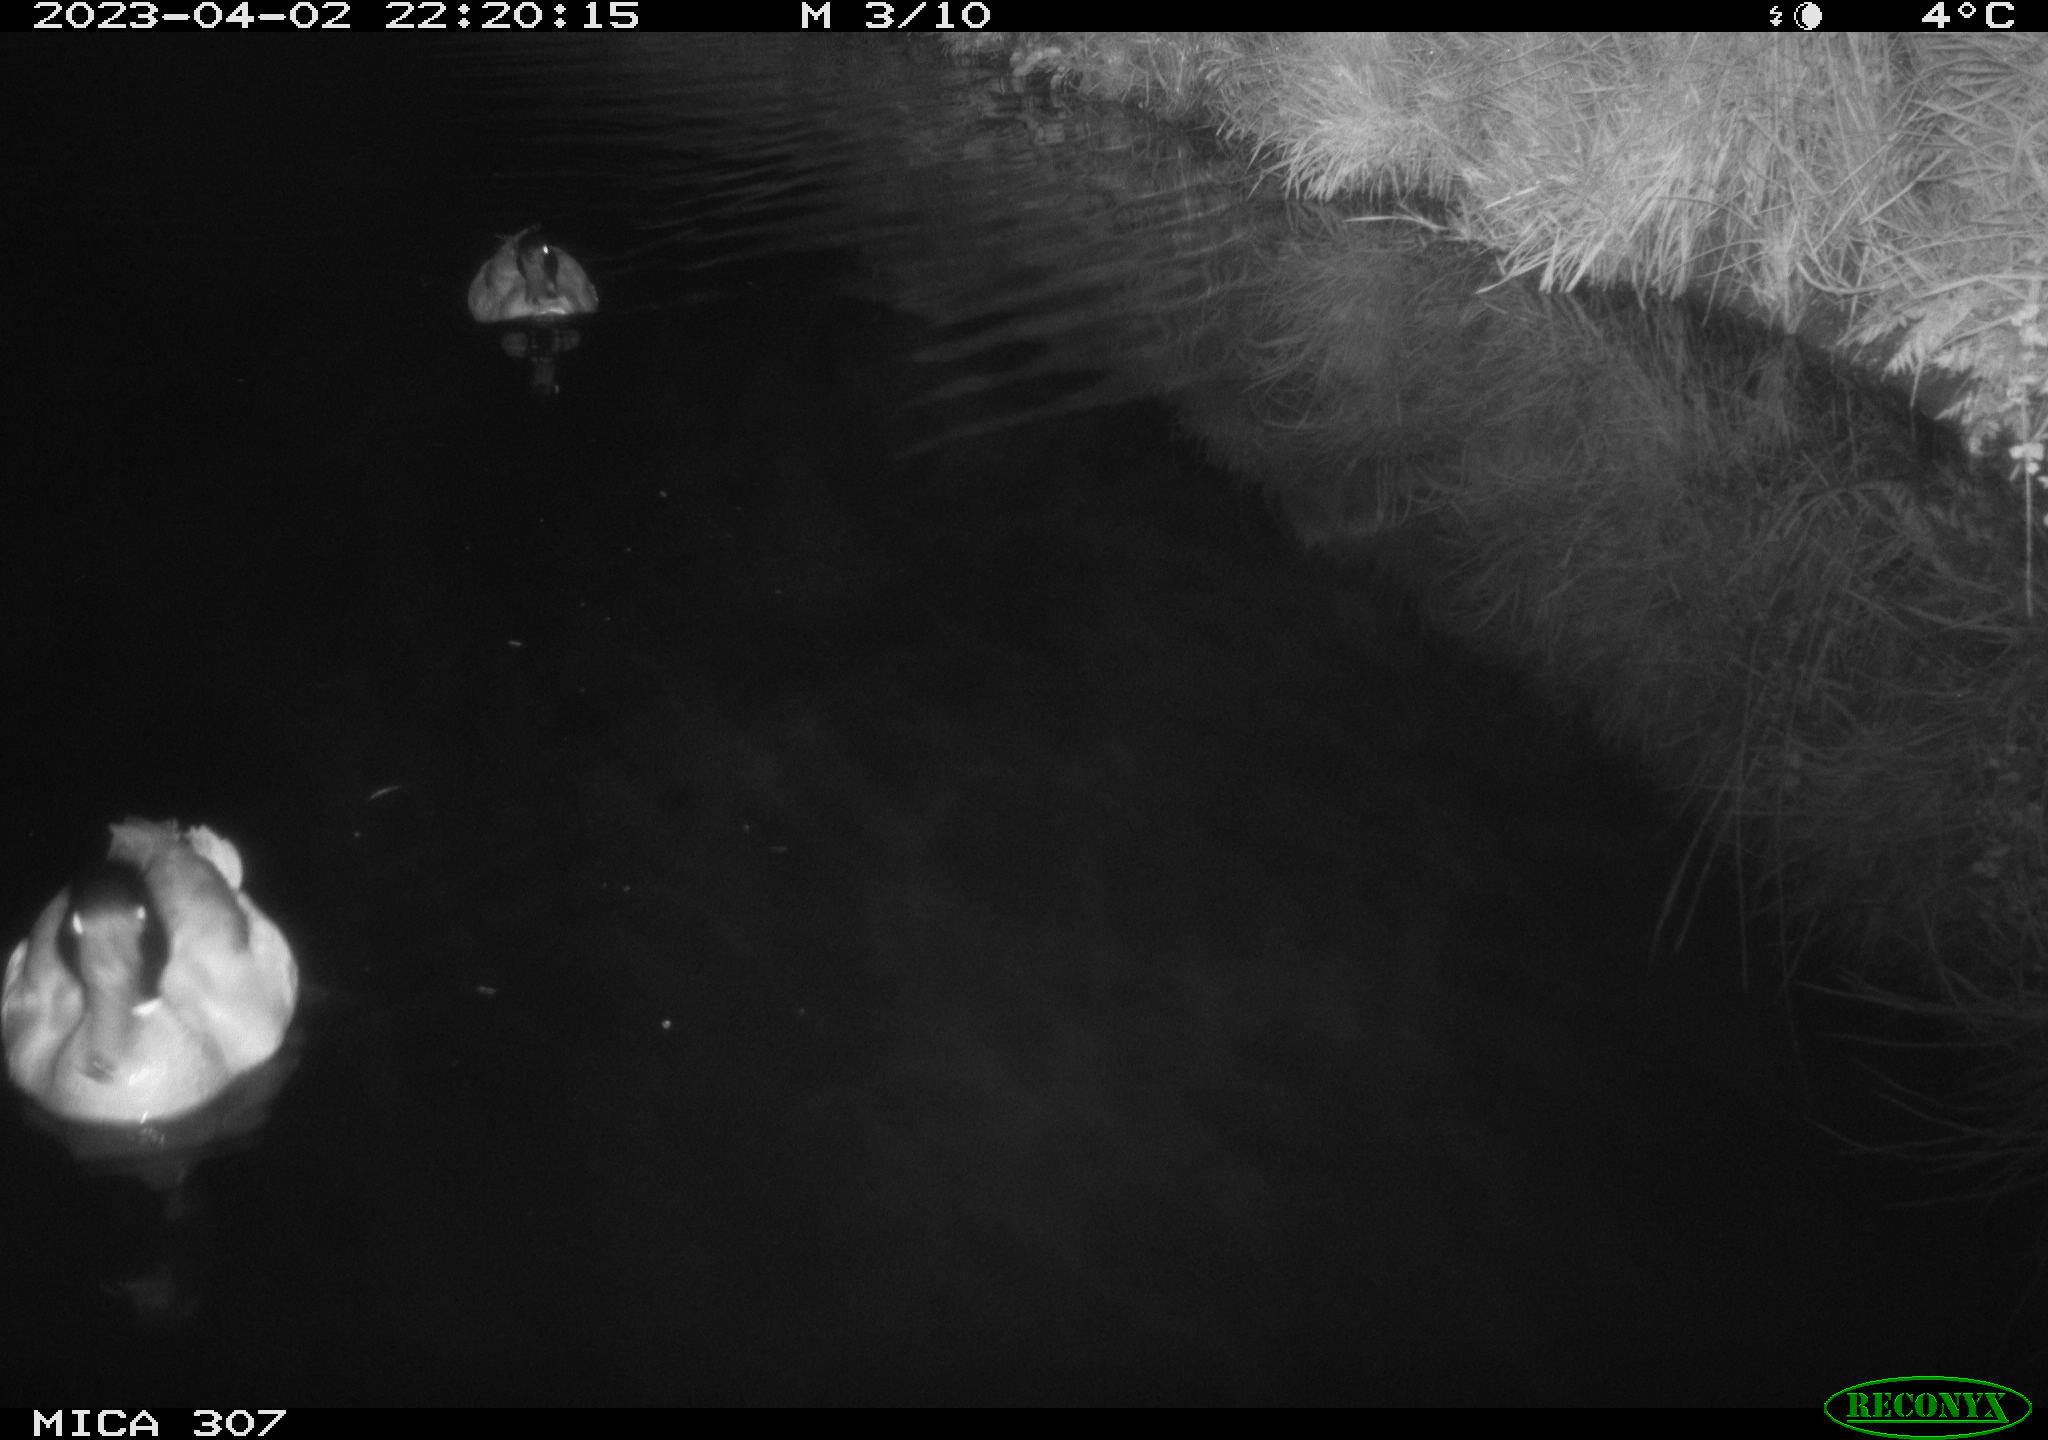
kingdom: Animalia
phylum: Chordata
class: Aves
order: Anseriformes
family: Anatidae
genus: Anas
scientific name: Anas
